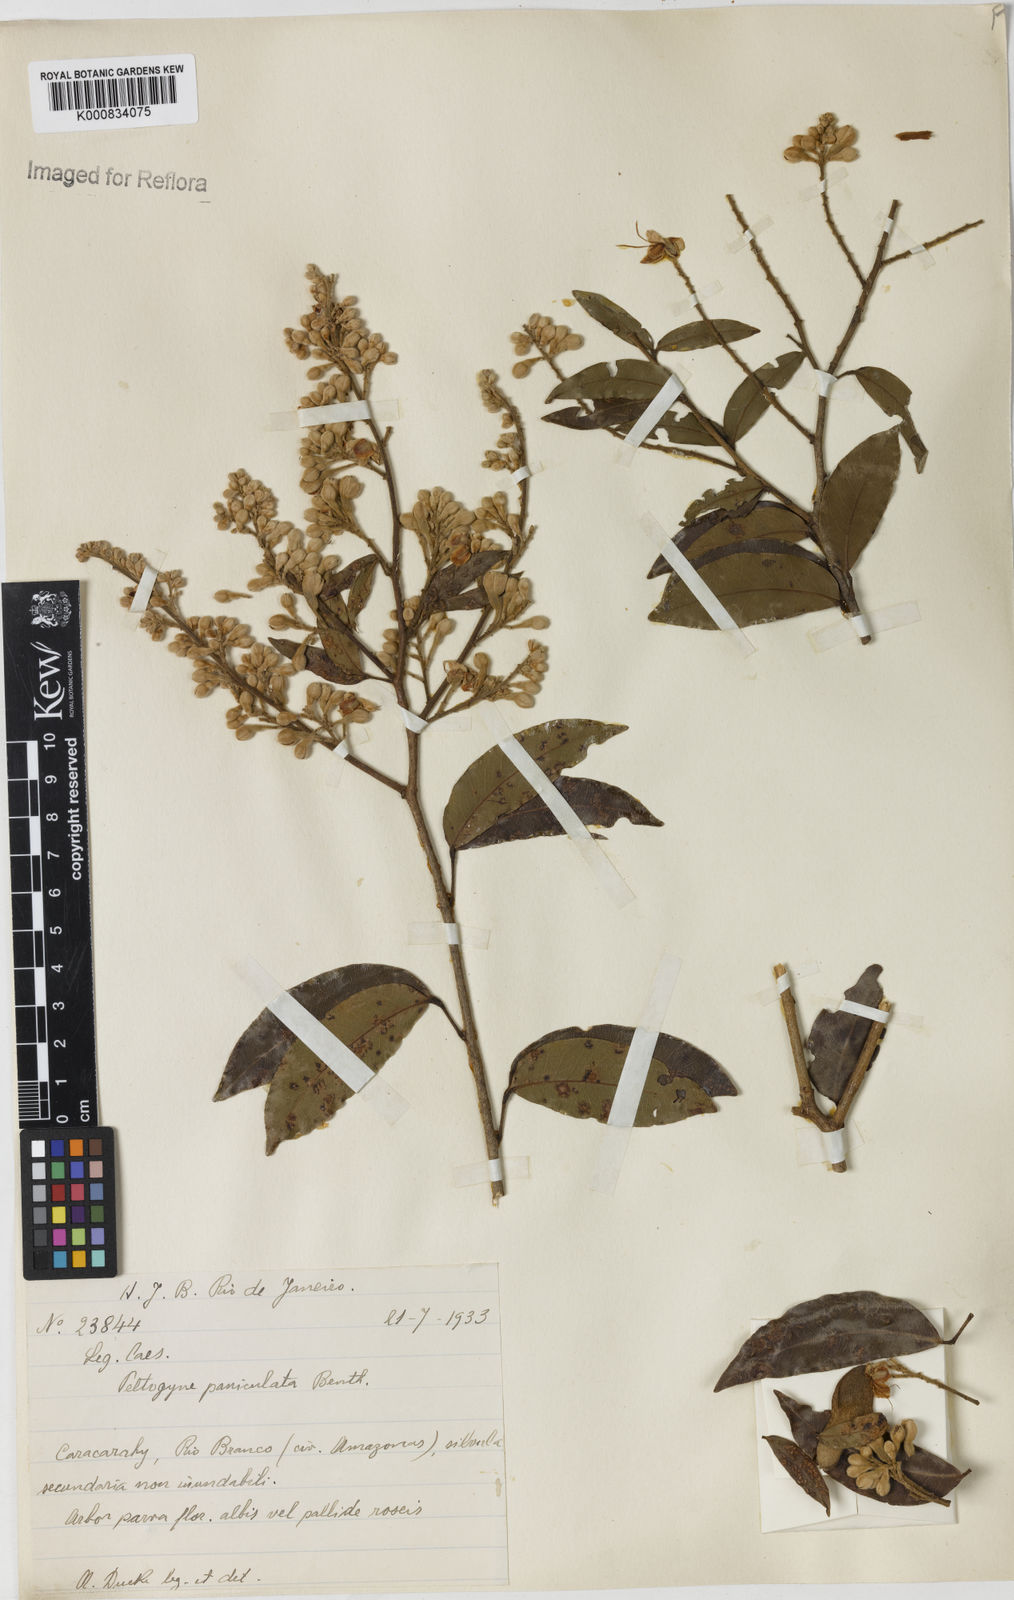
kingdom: Plantae
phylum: Tracheophyta
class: Magnoliopsida
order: Fabales
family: Fabaceae
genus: Peltogyne
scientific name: Peltogyne paniculata
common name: Purpleheart
